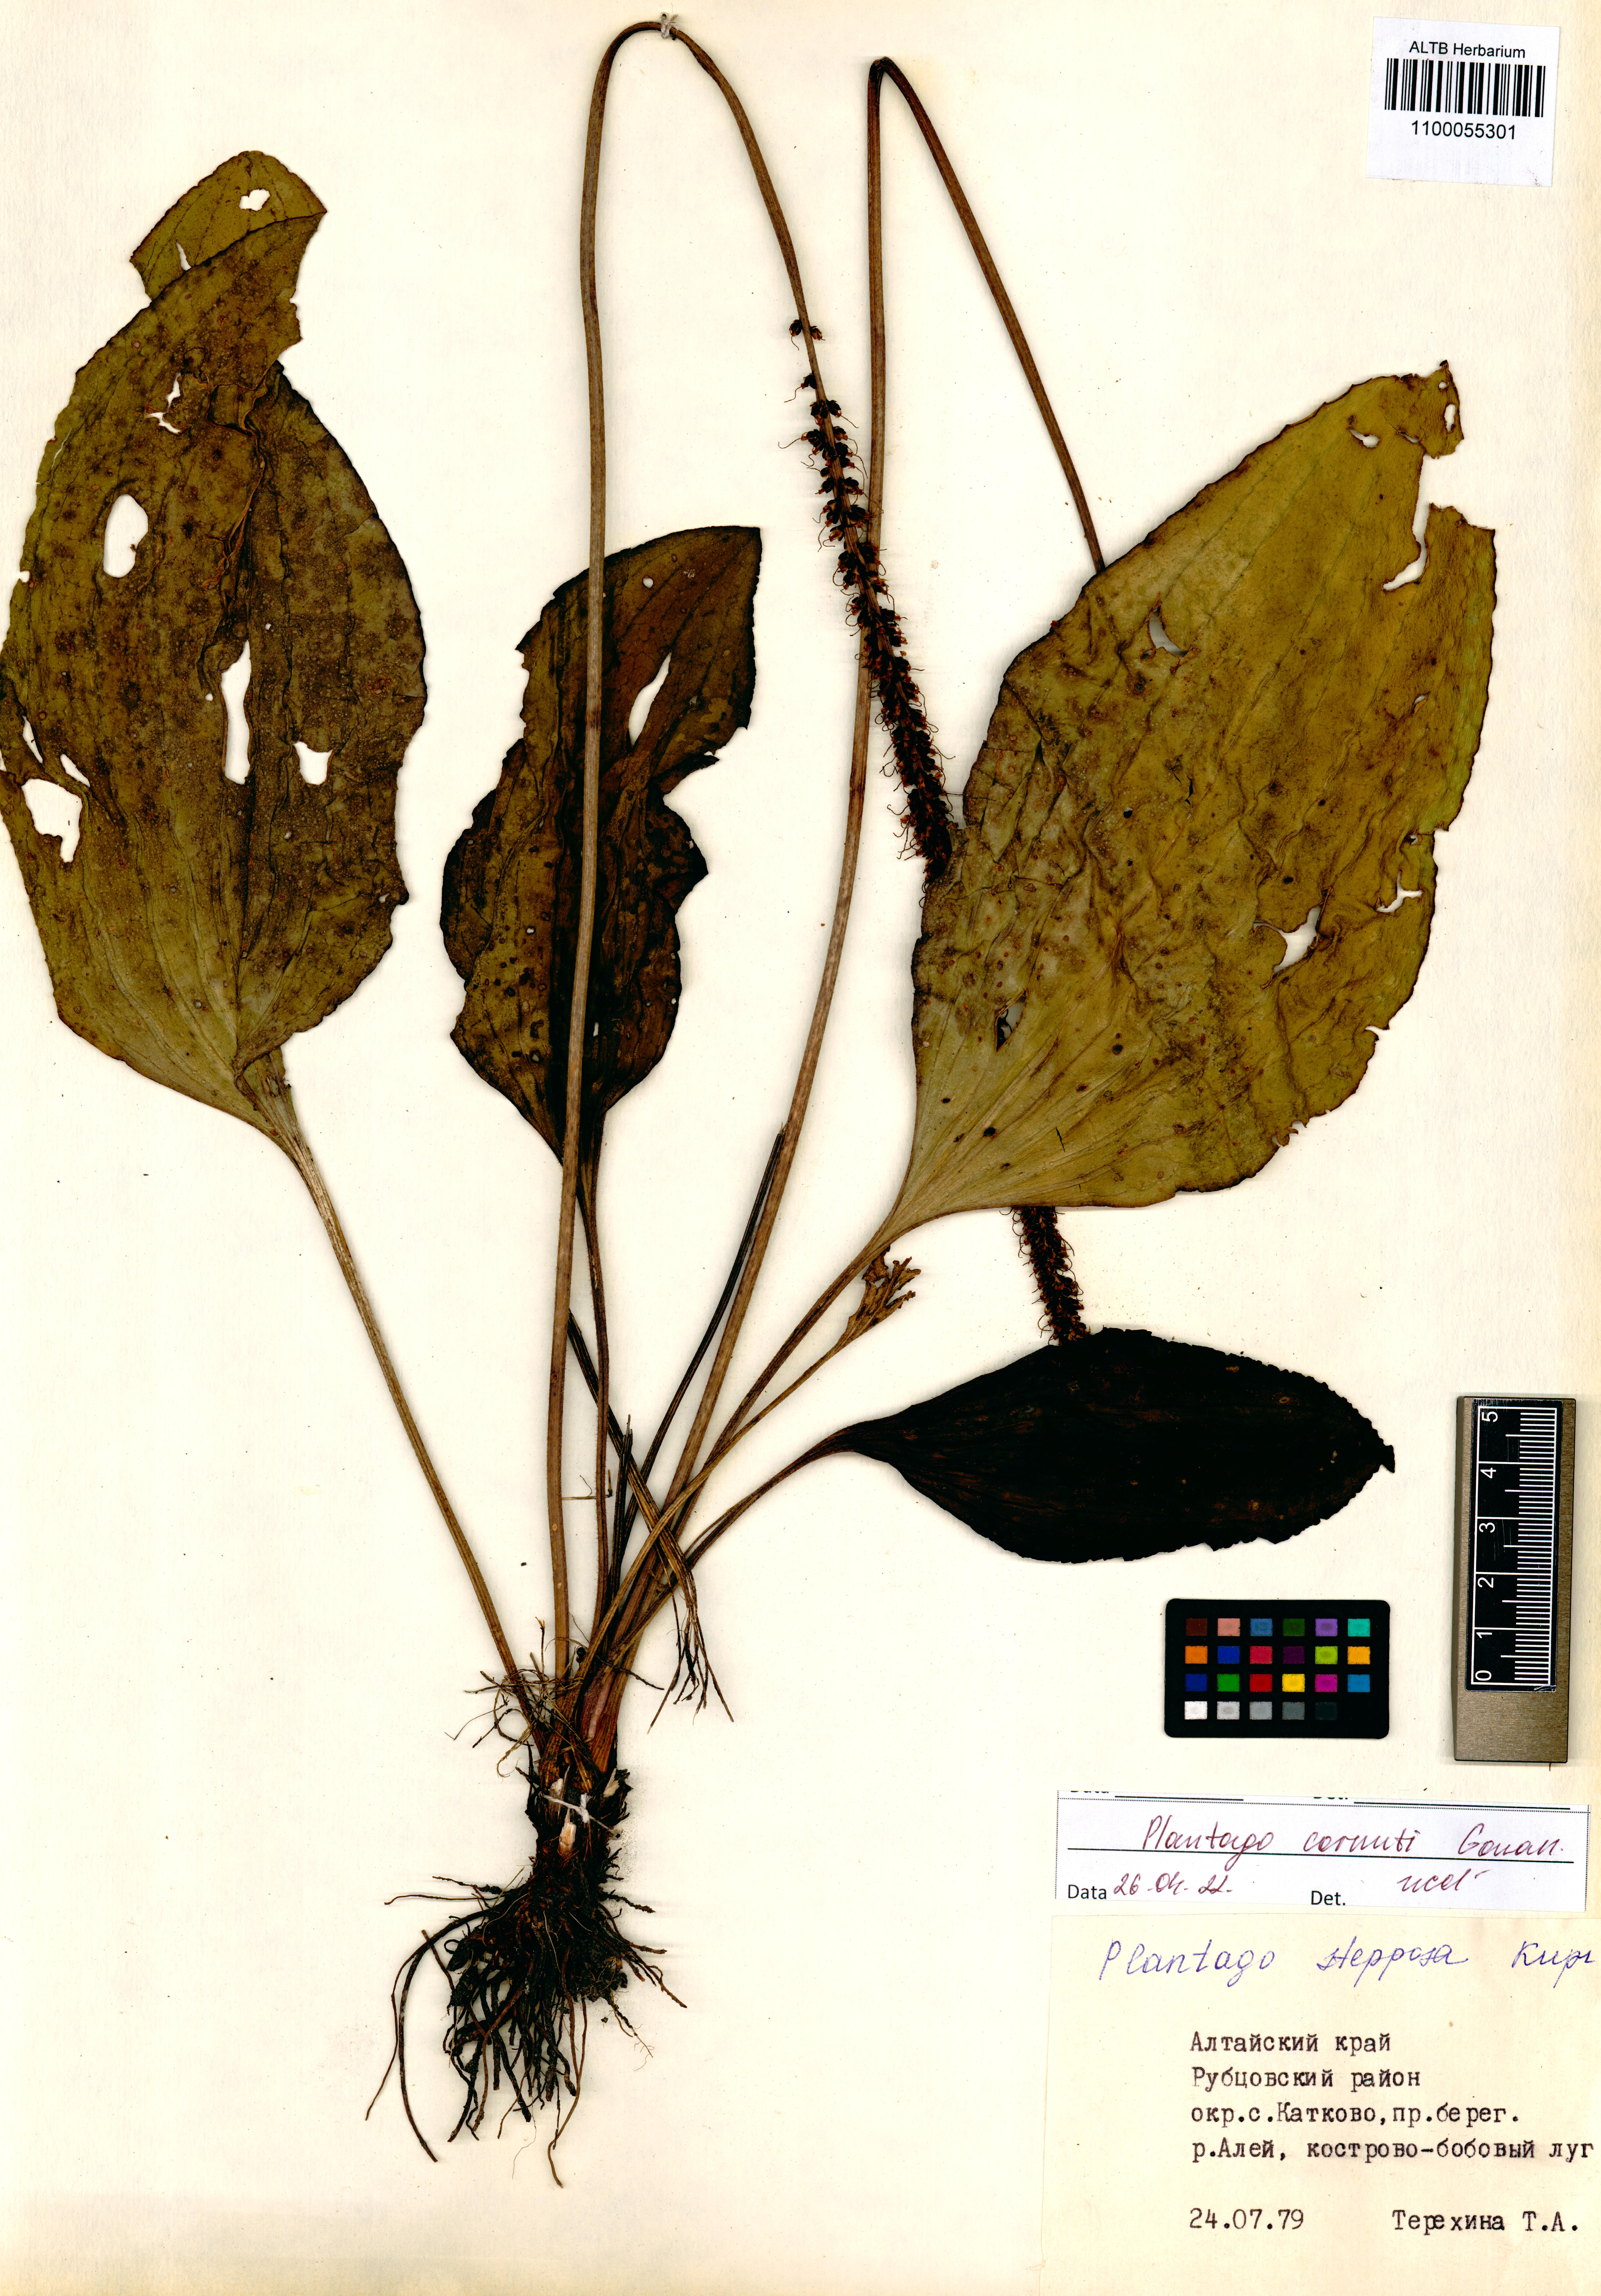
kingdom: Plantae
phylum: Tracheophyta
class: Magnoliopsida
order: Lamiales
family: Plantaginaceae
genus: Plantago
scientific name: Plantago cornuti
